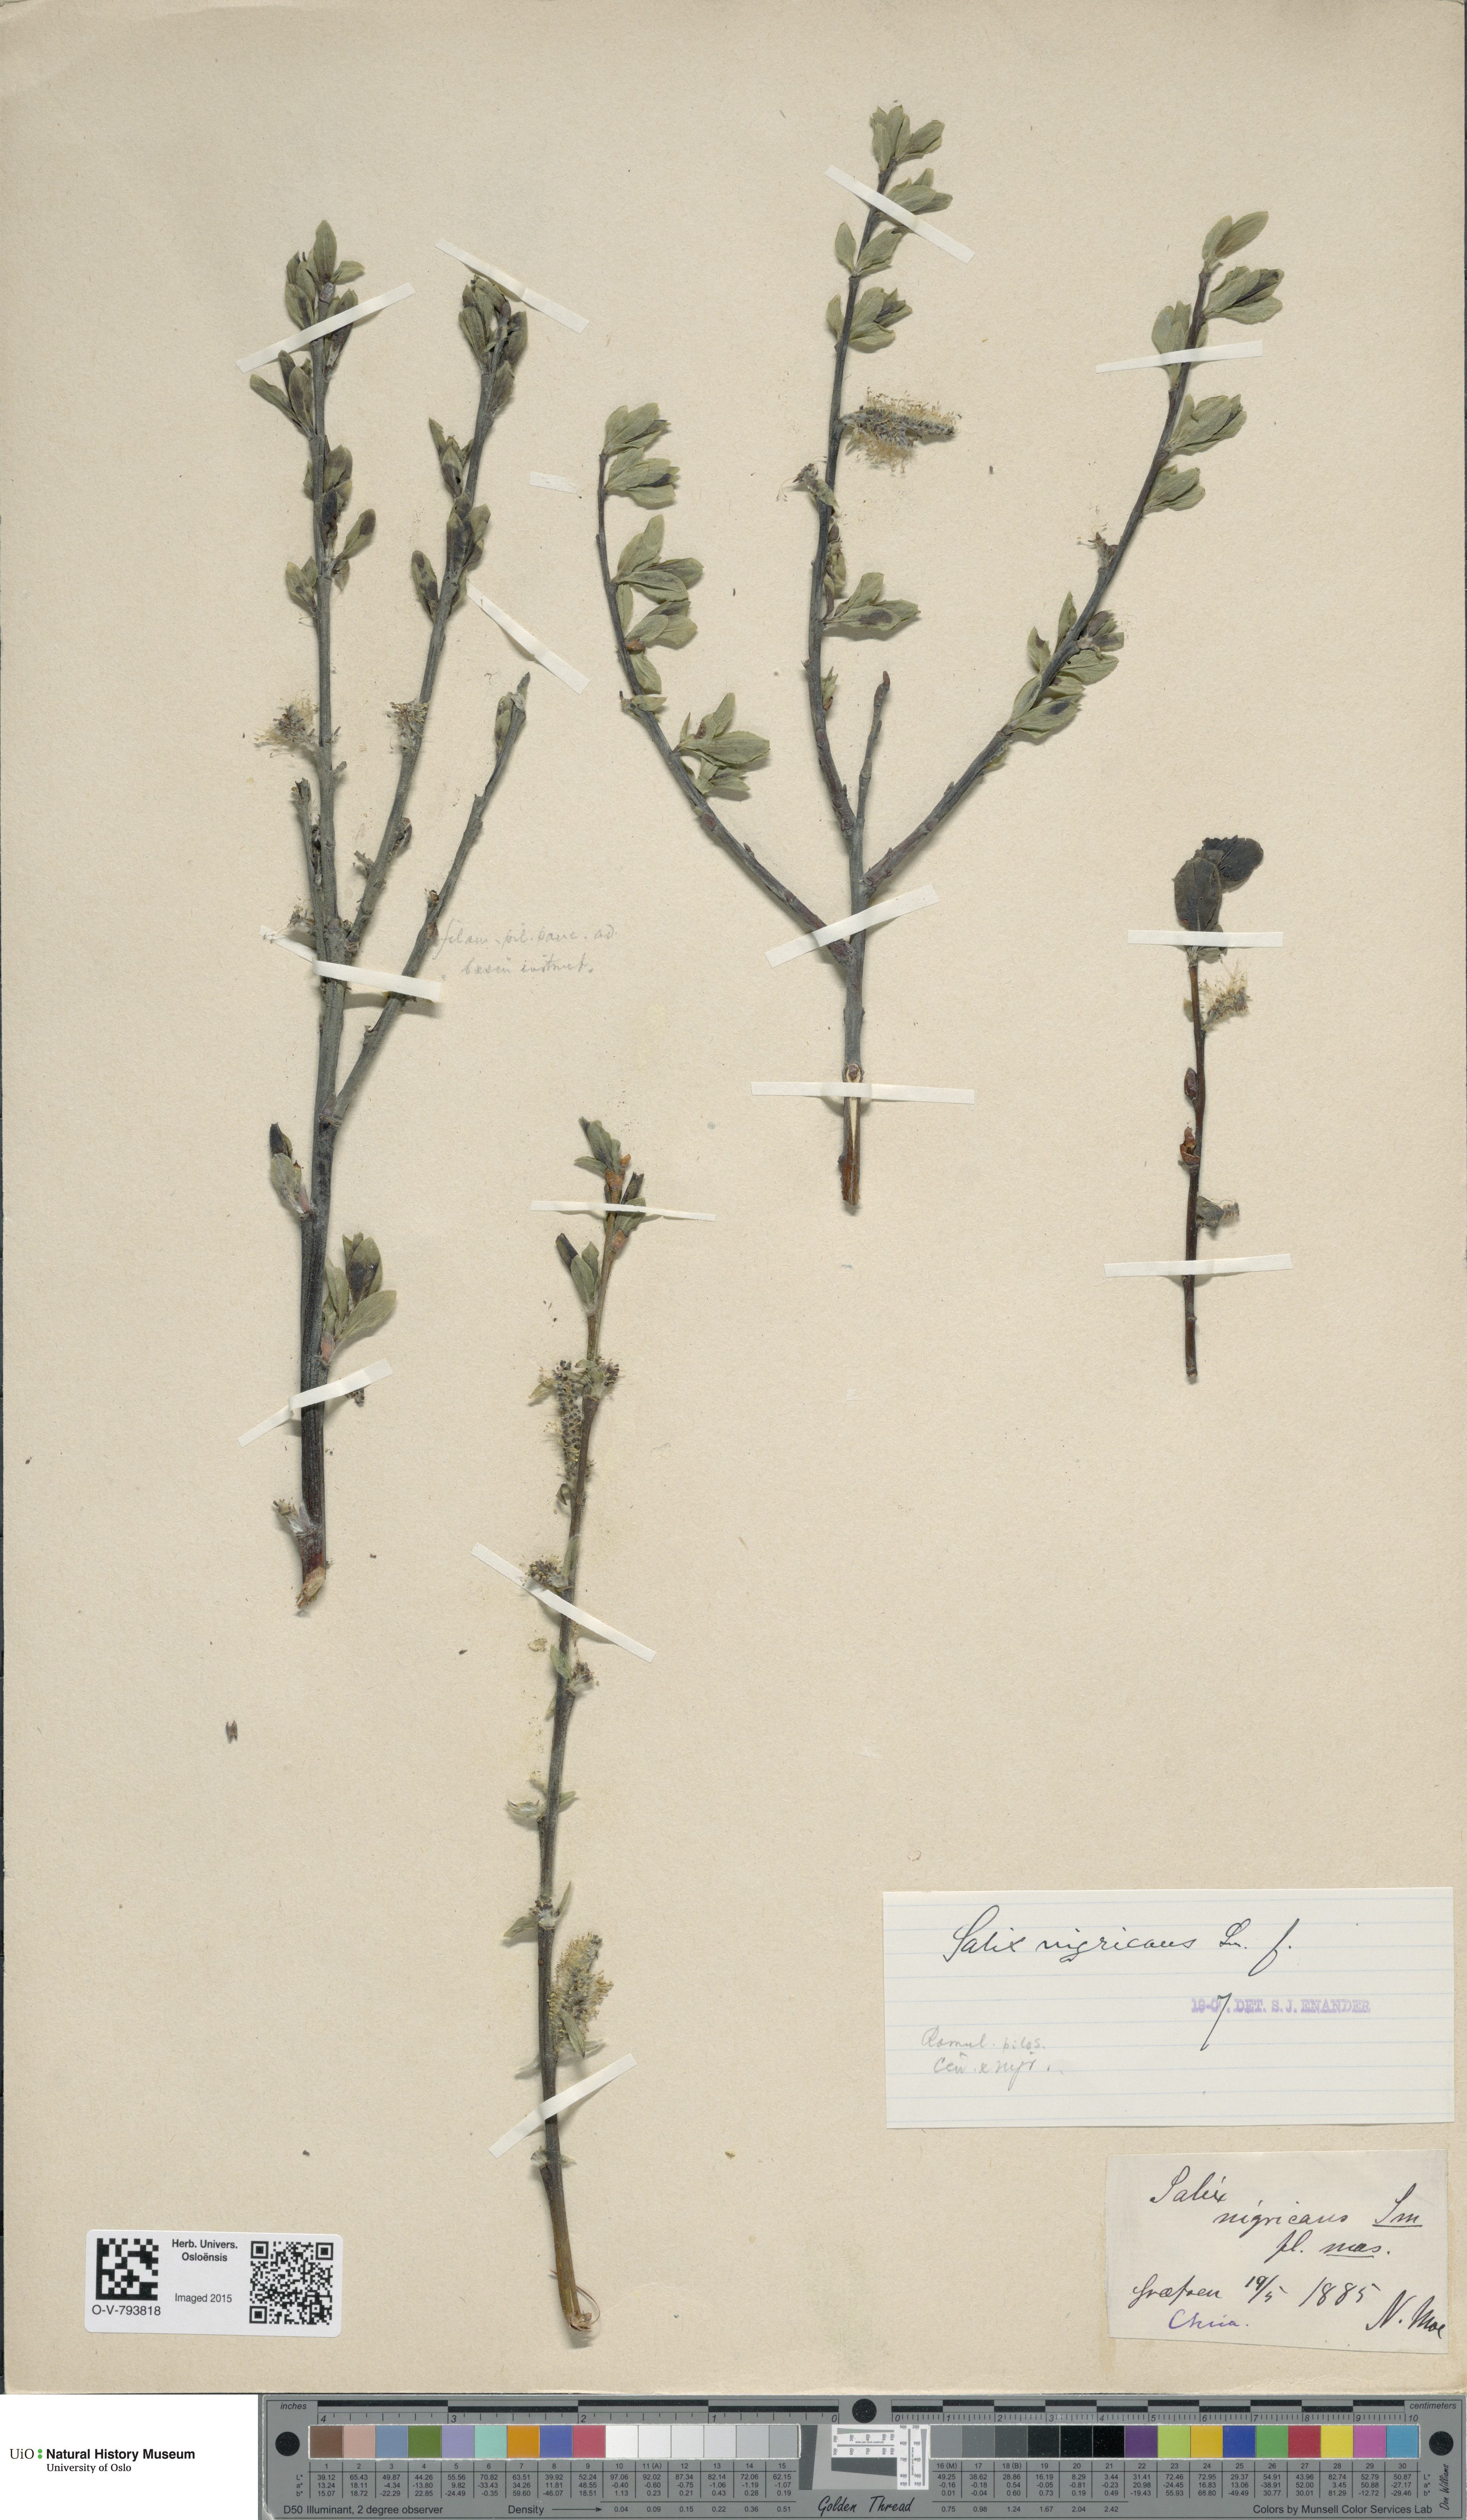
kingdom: Plantae
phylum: Tracheophyta
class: Magnoliopsida
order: Malpighiales
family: Salicaceae
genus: Salix
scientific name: Salix myrsinifolia
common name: Dark-leaved willow
